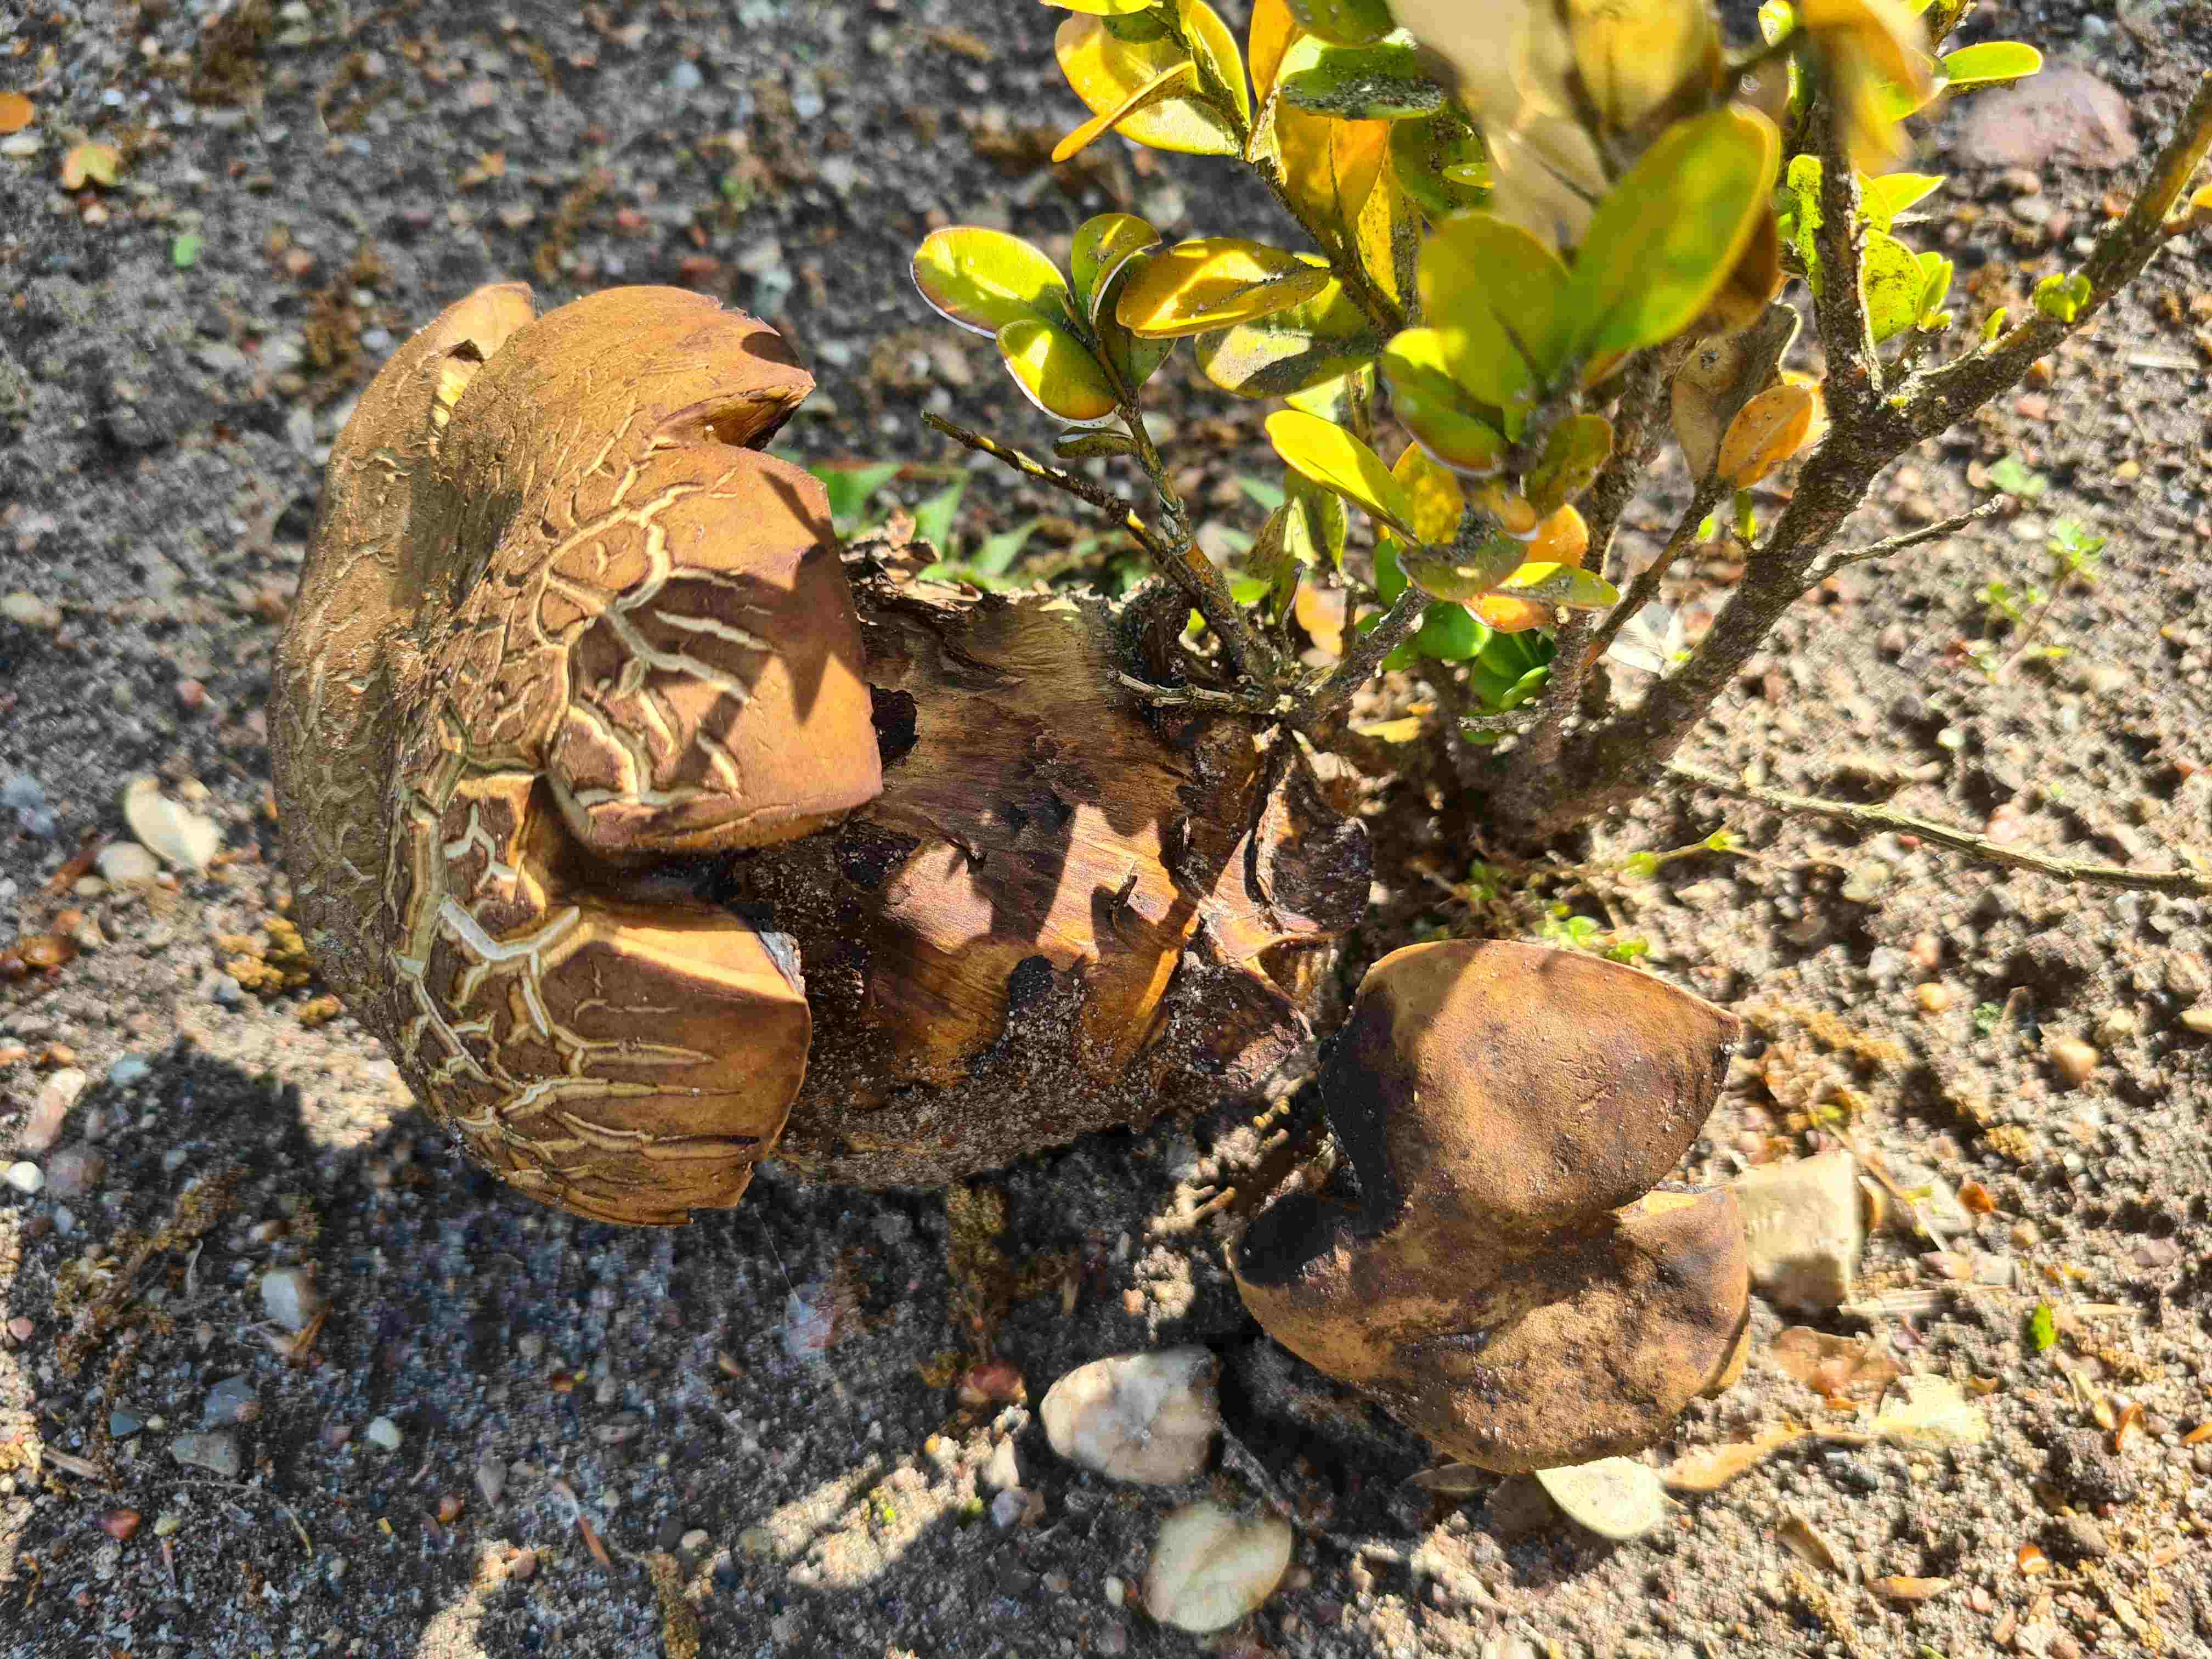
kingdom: Fungi
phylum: Basidiomycota
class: Agaricomycetes
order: Boletales
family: Boletaceae
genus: Suillellus
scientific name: Suillellus luridus
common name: netstokket indigorørhat
